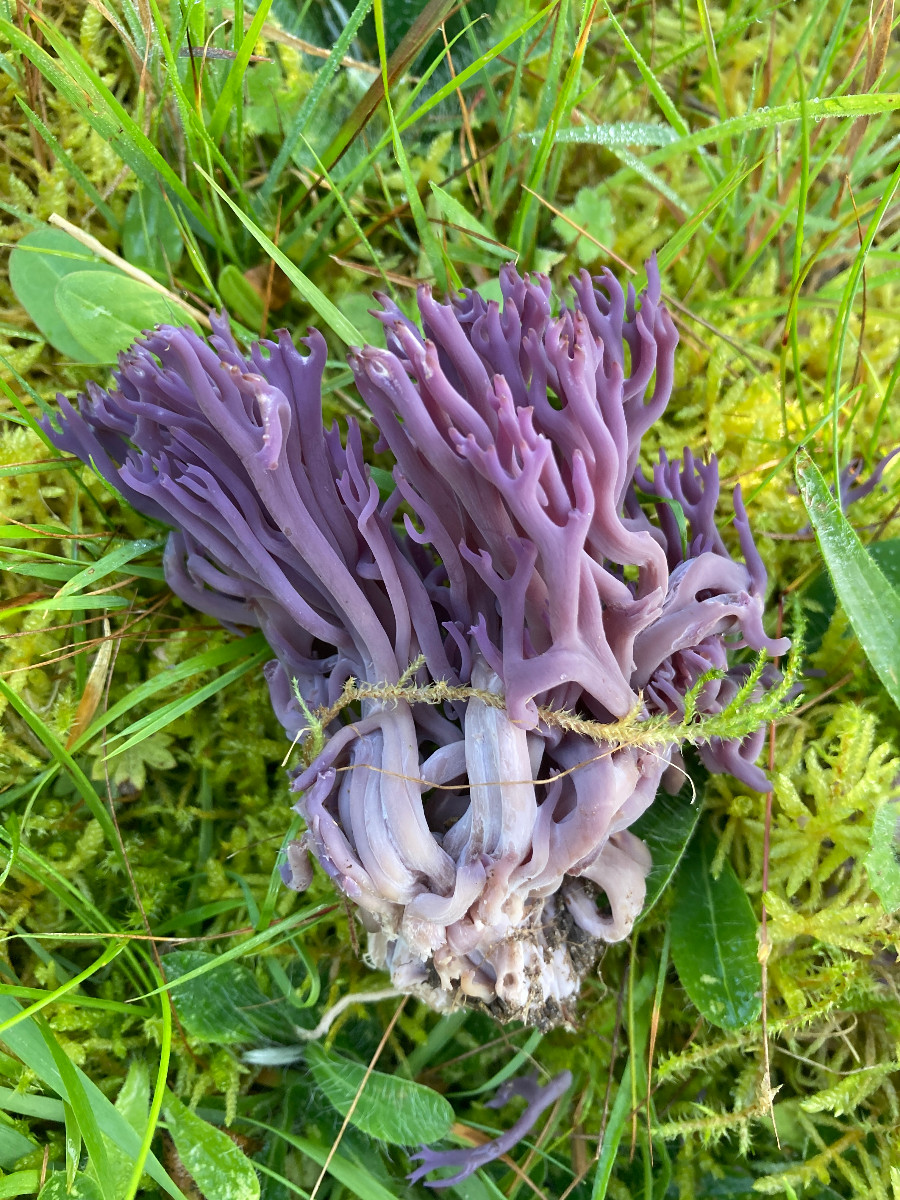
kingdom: Fungi
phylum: Basidiomycota
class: Agaricomycetes
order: Agaricales
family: Clavariaceae
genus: Clavaria
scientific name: Clavaria zollingeri
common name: purpur-køllesvamp
